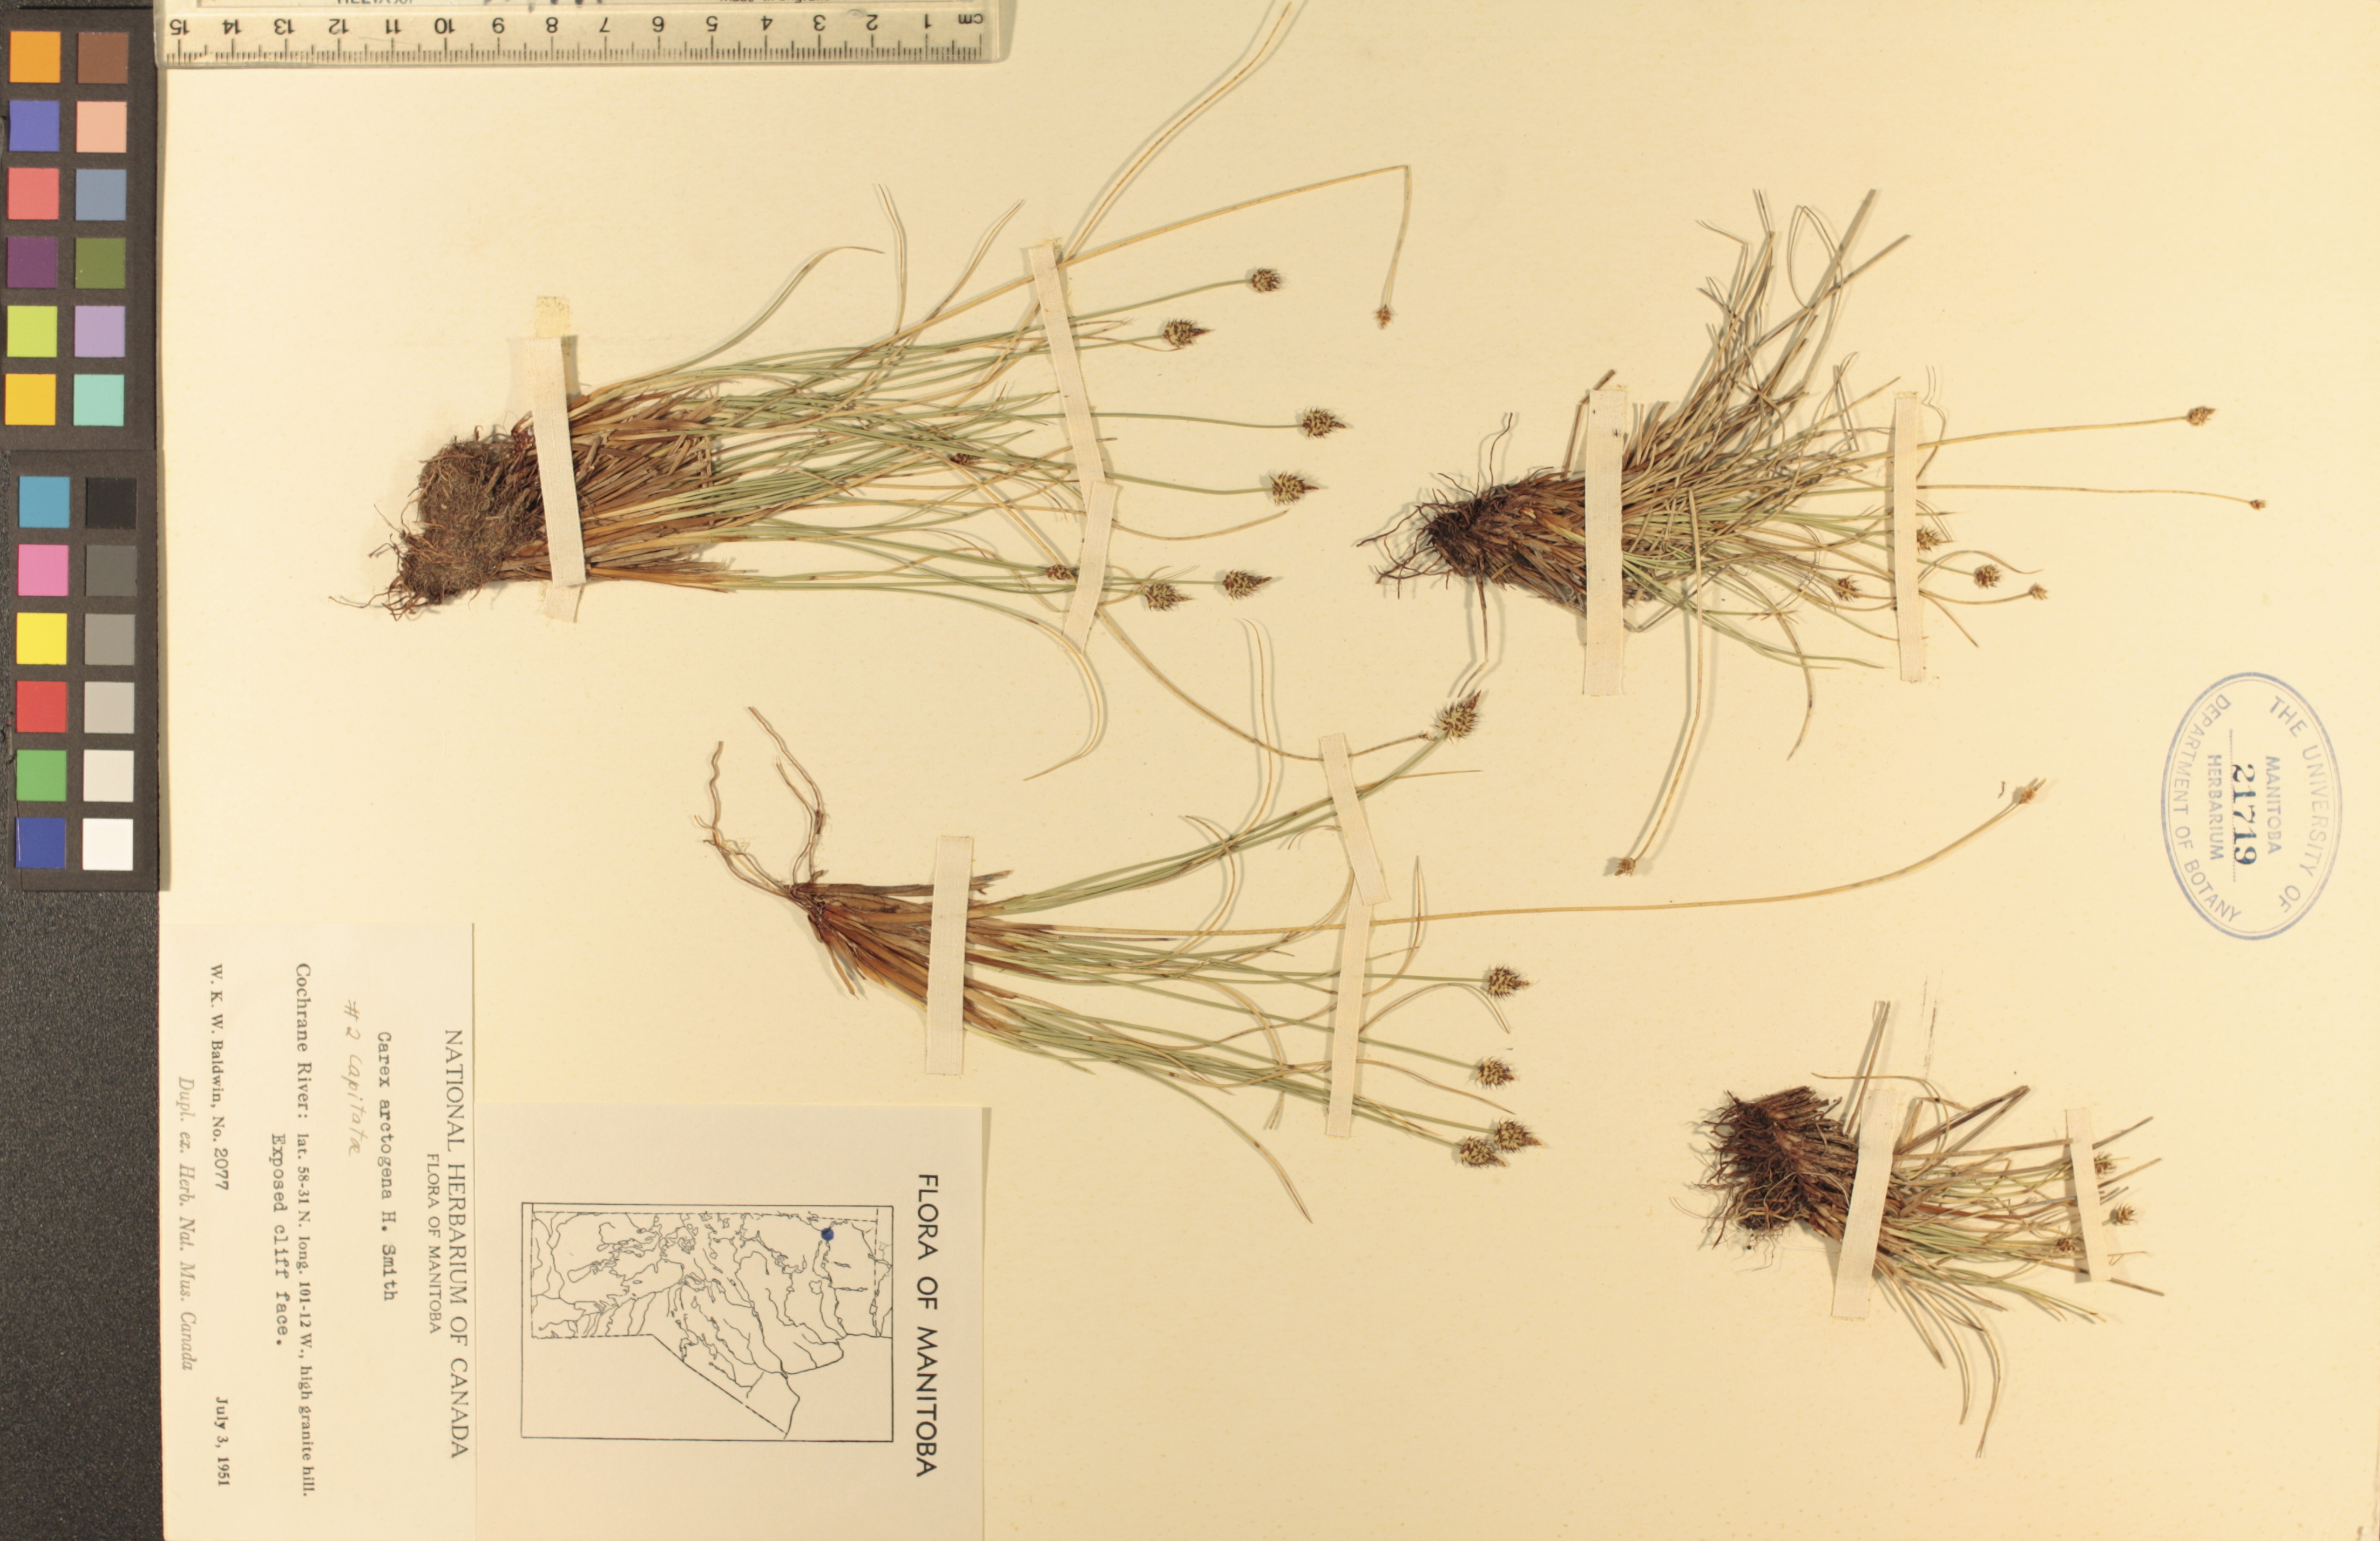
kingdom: Plantae
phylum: Tracheophyta
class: Liliopsida
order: Poales
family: Cyperaceae
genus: Carex
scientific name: Carex arctogena
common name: Black sedge
